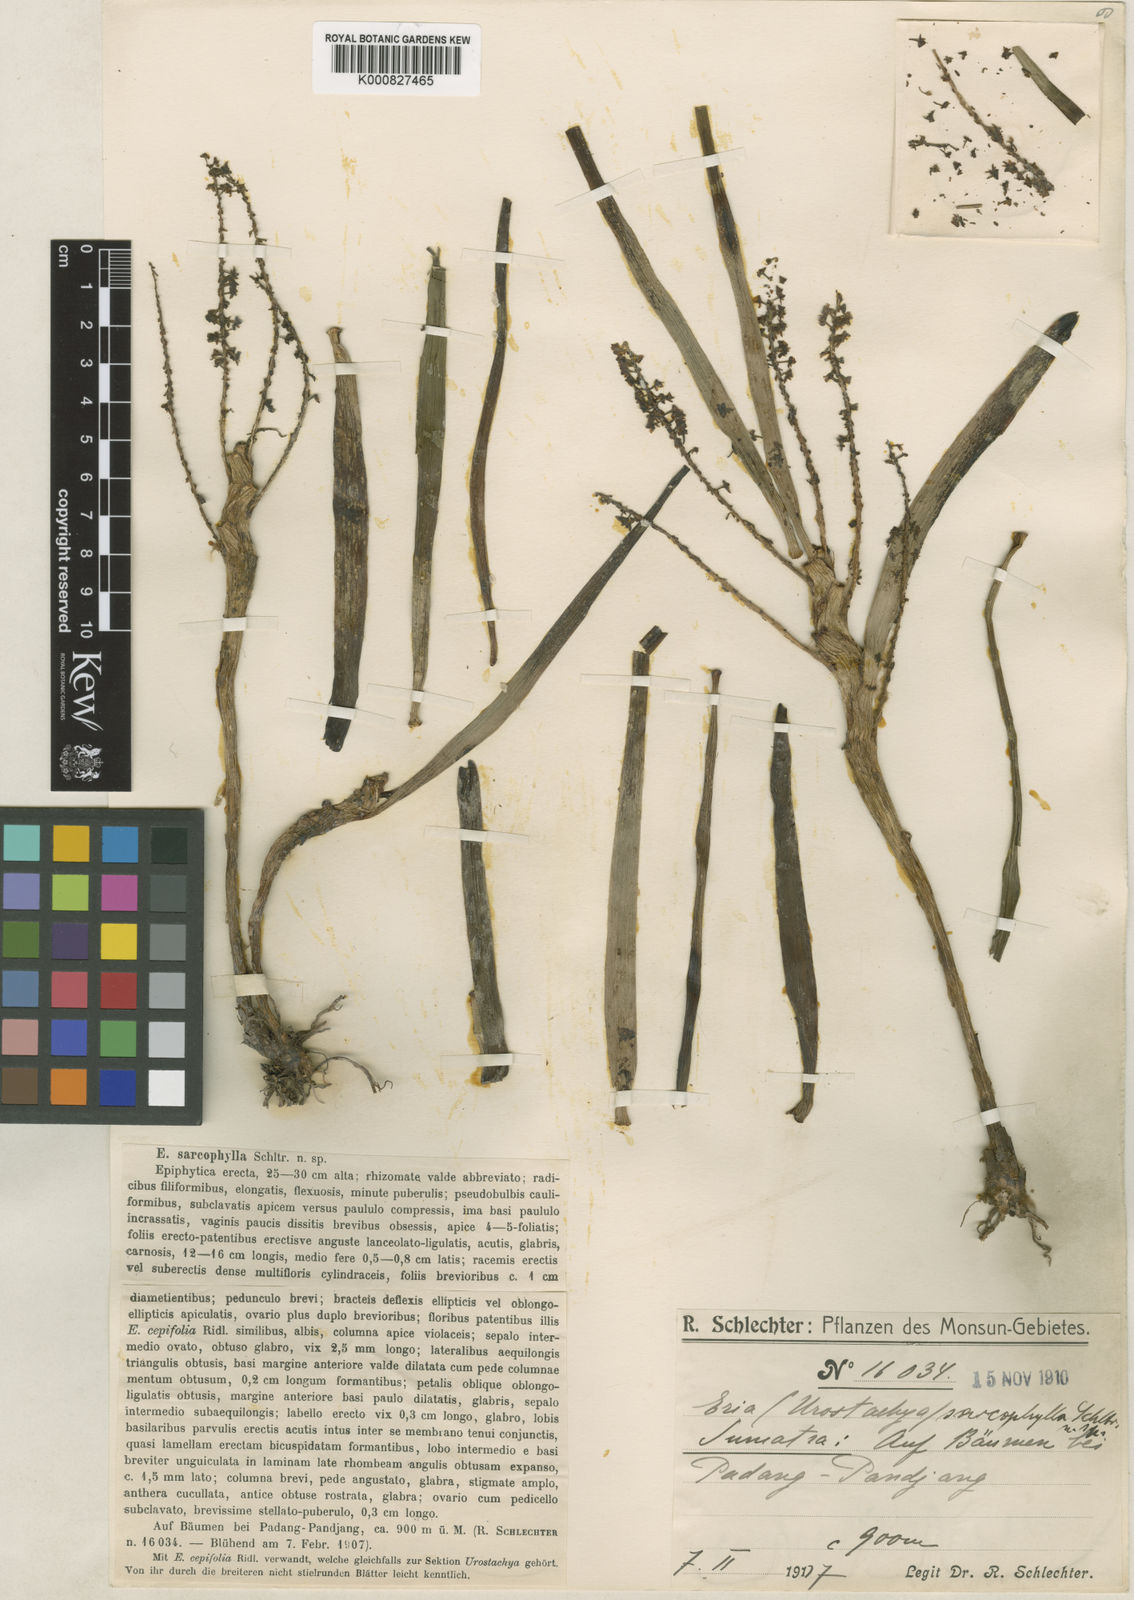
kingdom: Plantae
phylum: Tracheophyta
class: Liliopsida
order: Asparagales
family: Orchidaceae
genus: Pinalia
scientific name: Pinalia
